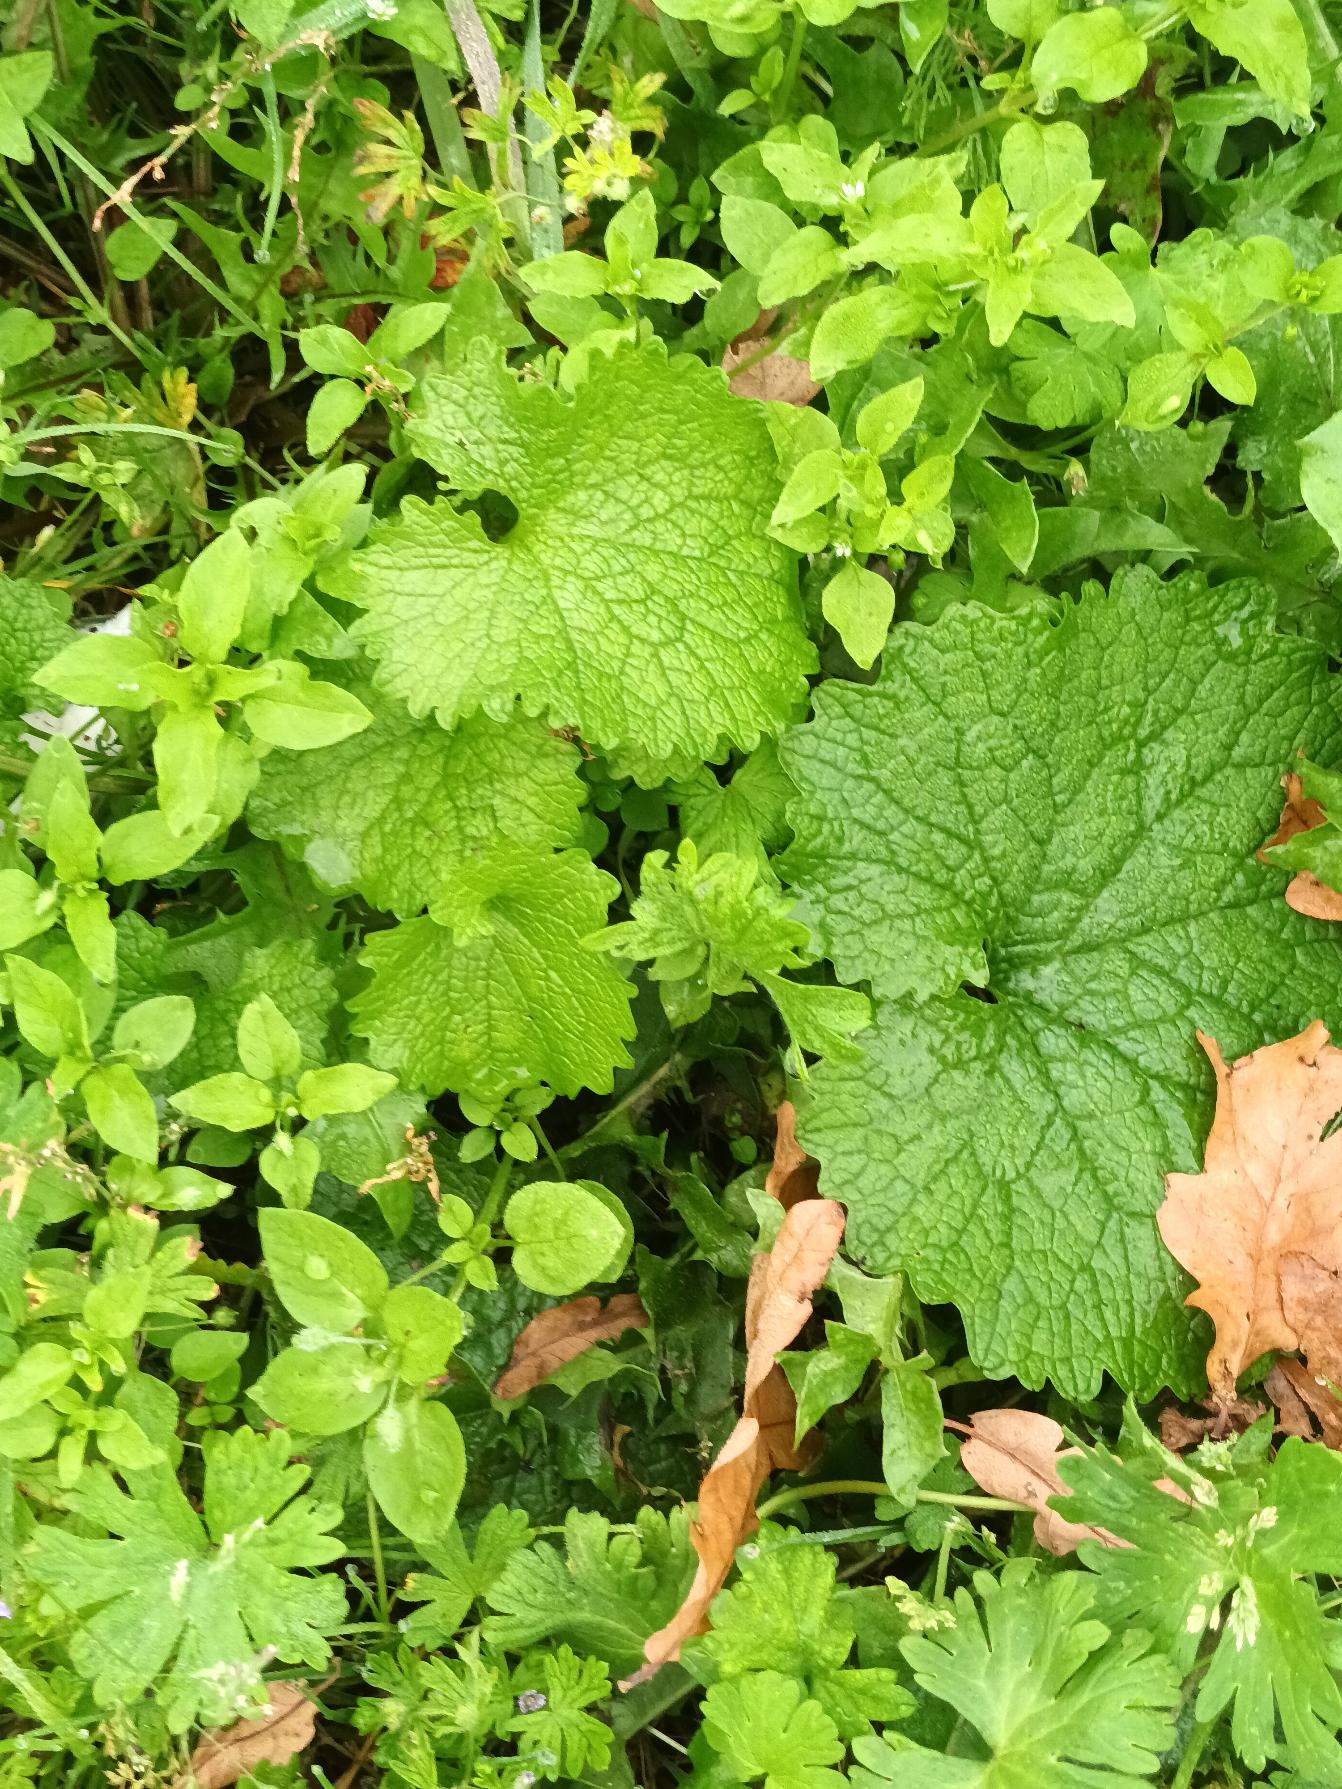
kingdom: Plantae
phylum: Tracheophyta
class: Magnoliopsida
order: Brassicales
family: Brassicaceae
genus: Alliaria
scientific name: Alliaria petiolata
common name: Løgkarse
